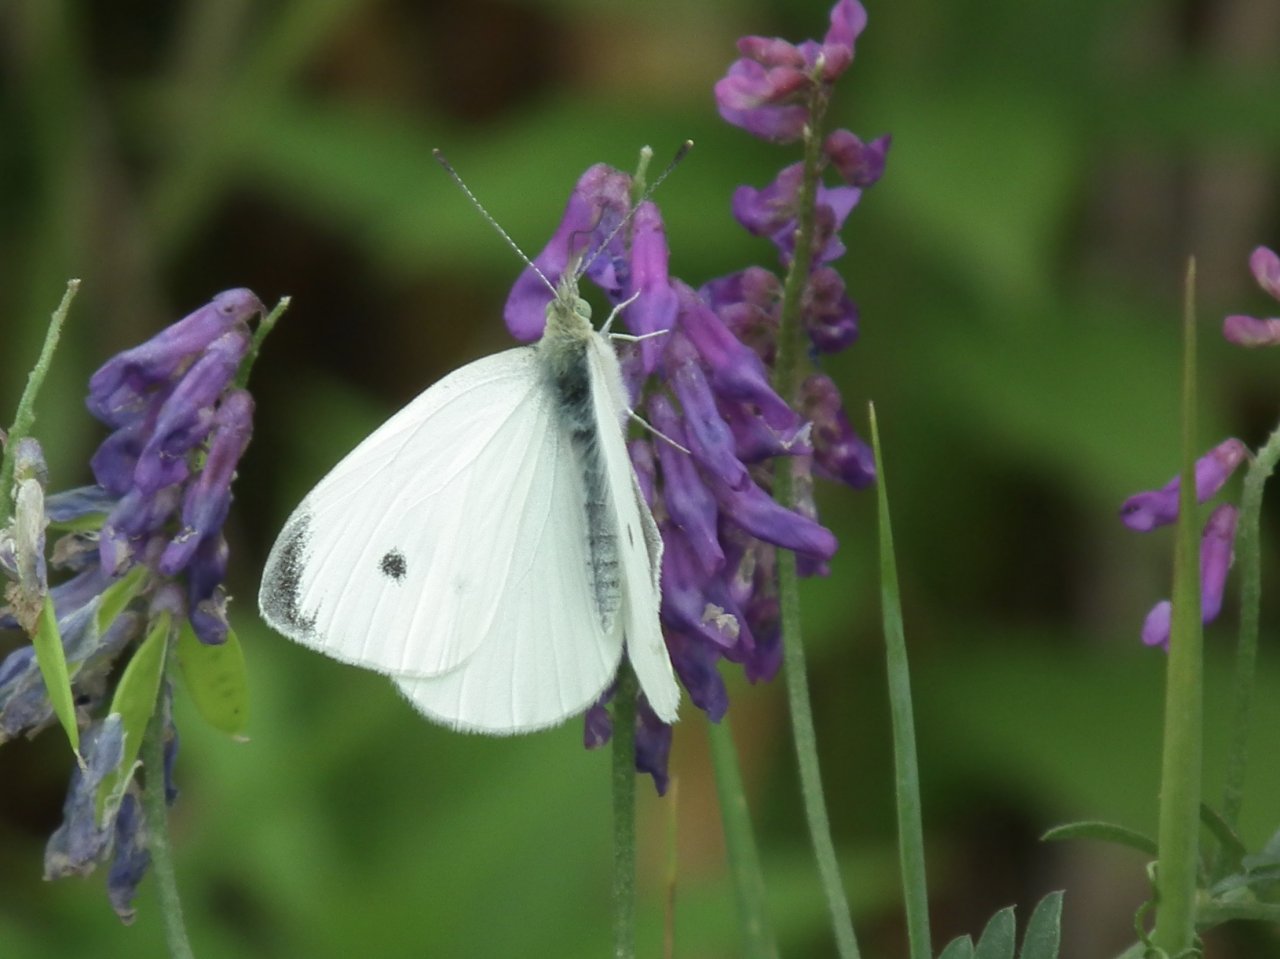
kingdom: Animalia
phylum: Arthropoda
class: Insecta
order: Lepidoptera
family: Pieridae
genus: Pieris
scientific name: Pieris rapae
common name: Cabbage White
